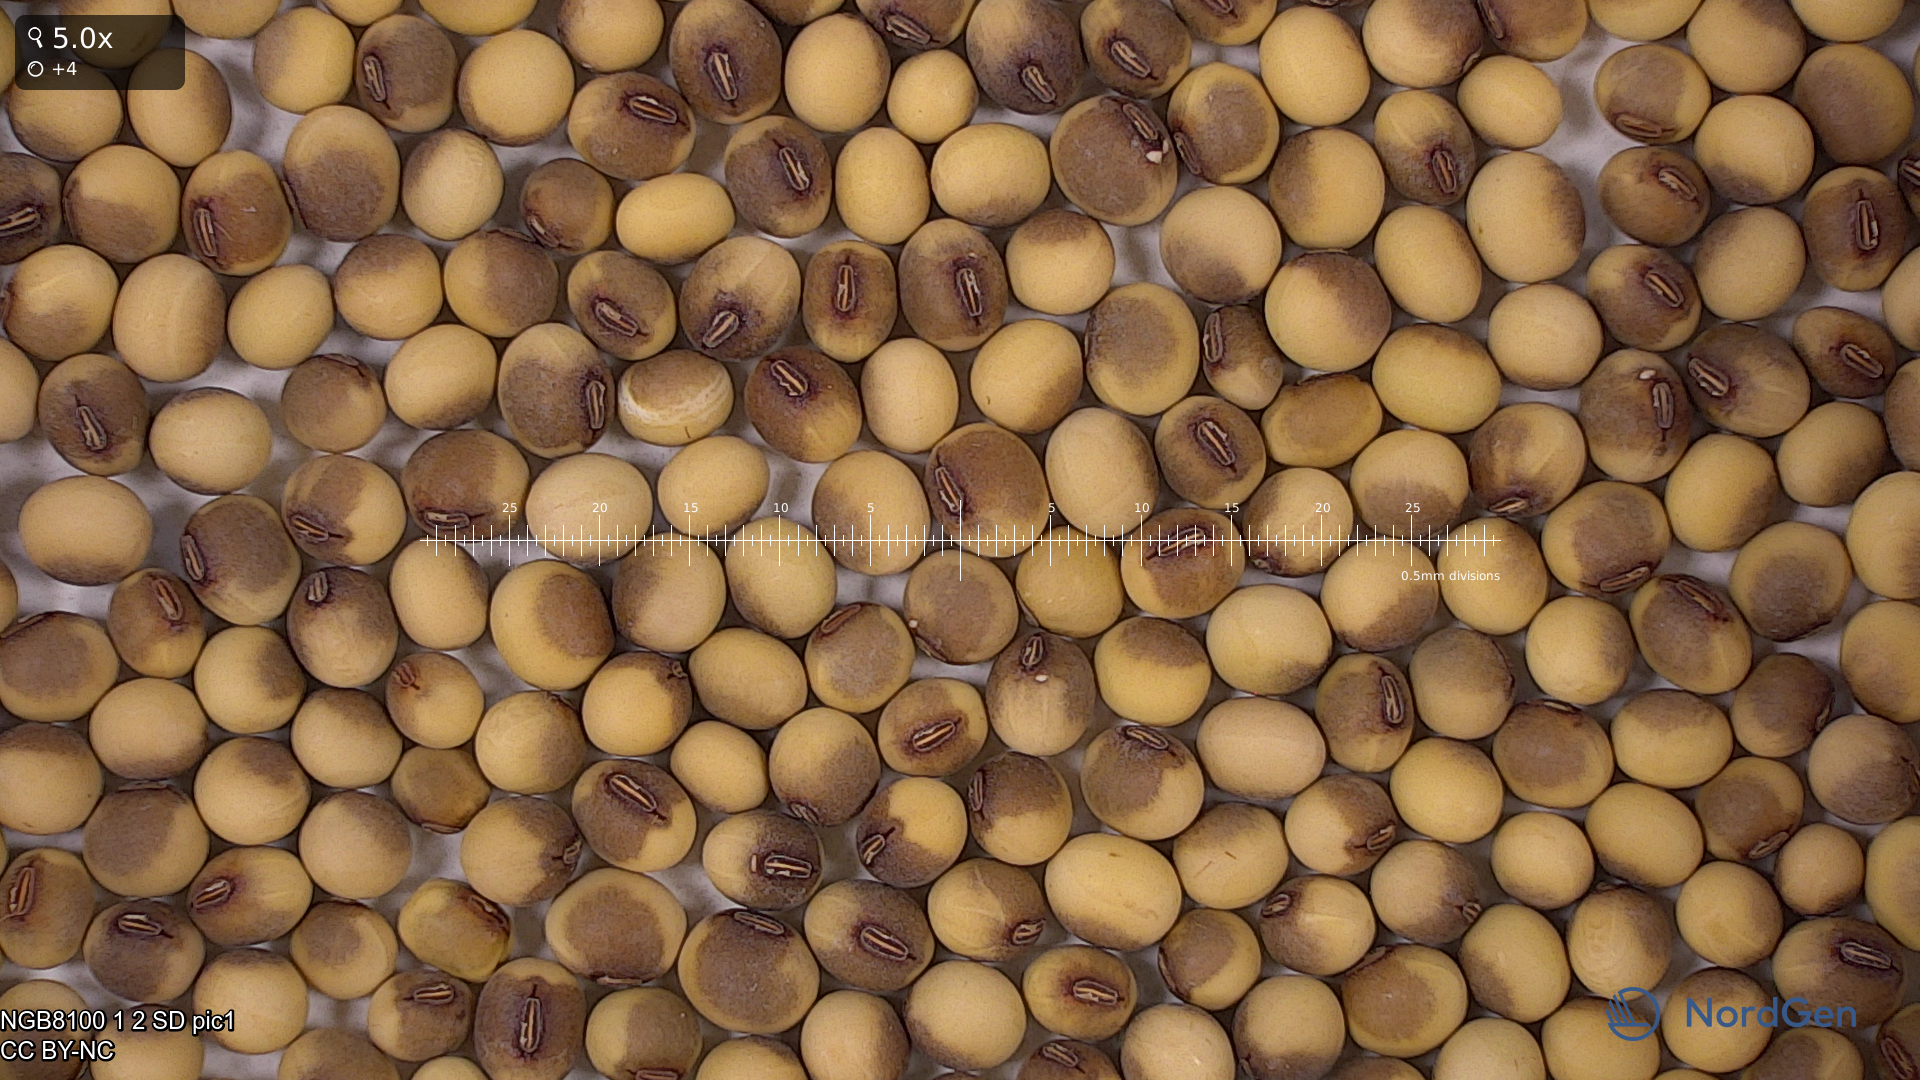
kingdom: Plantae
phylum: Tracheophyta
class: Magnoliopsida
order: Fabales
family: Fabaceae
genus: Glycine
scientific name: Glycine max
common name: Soya-bean
